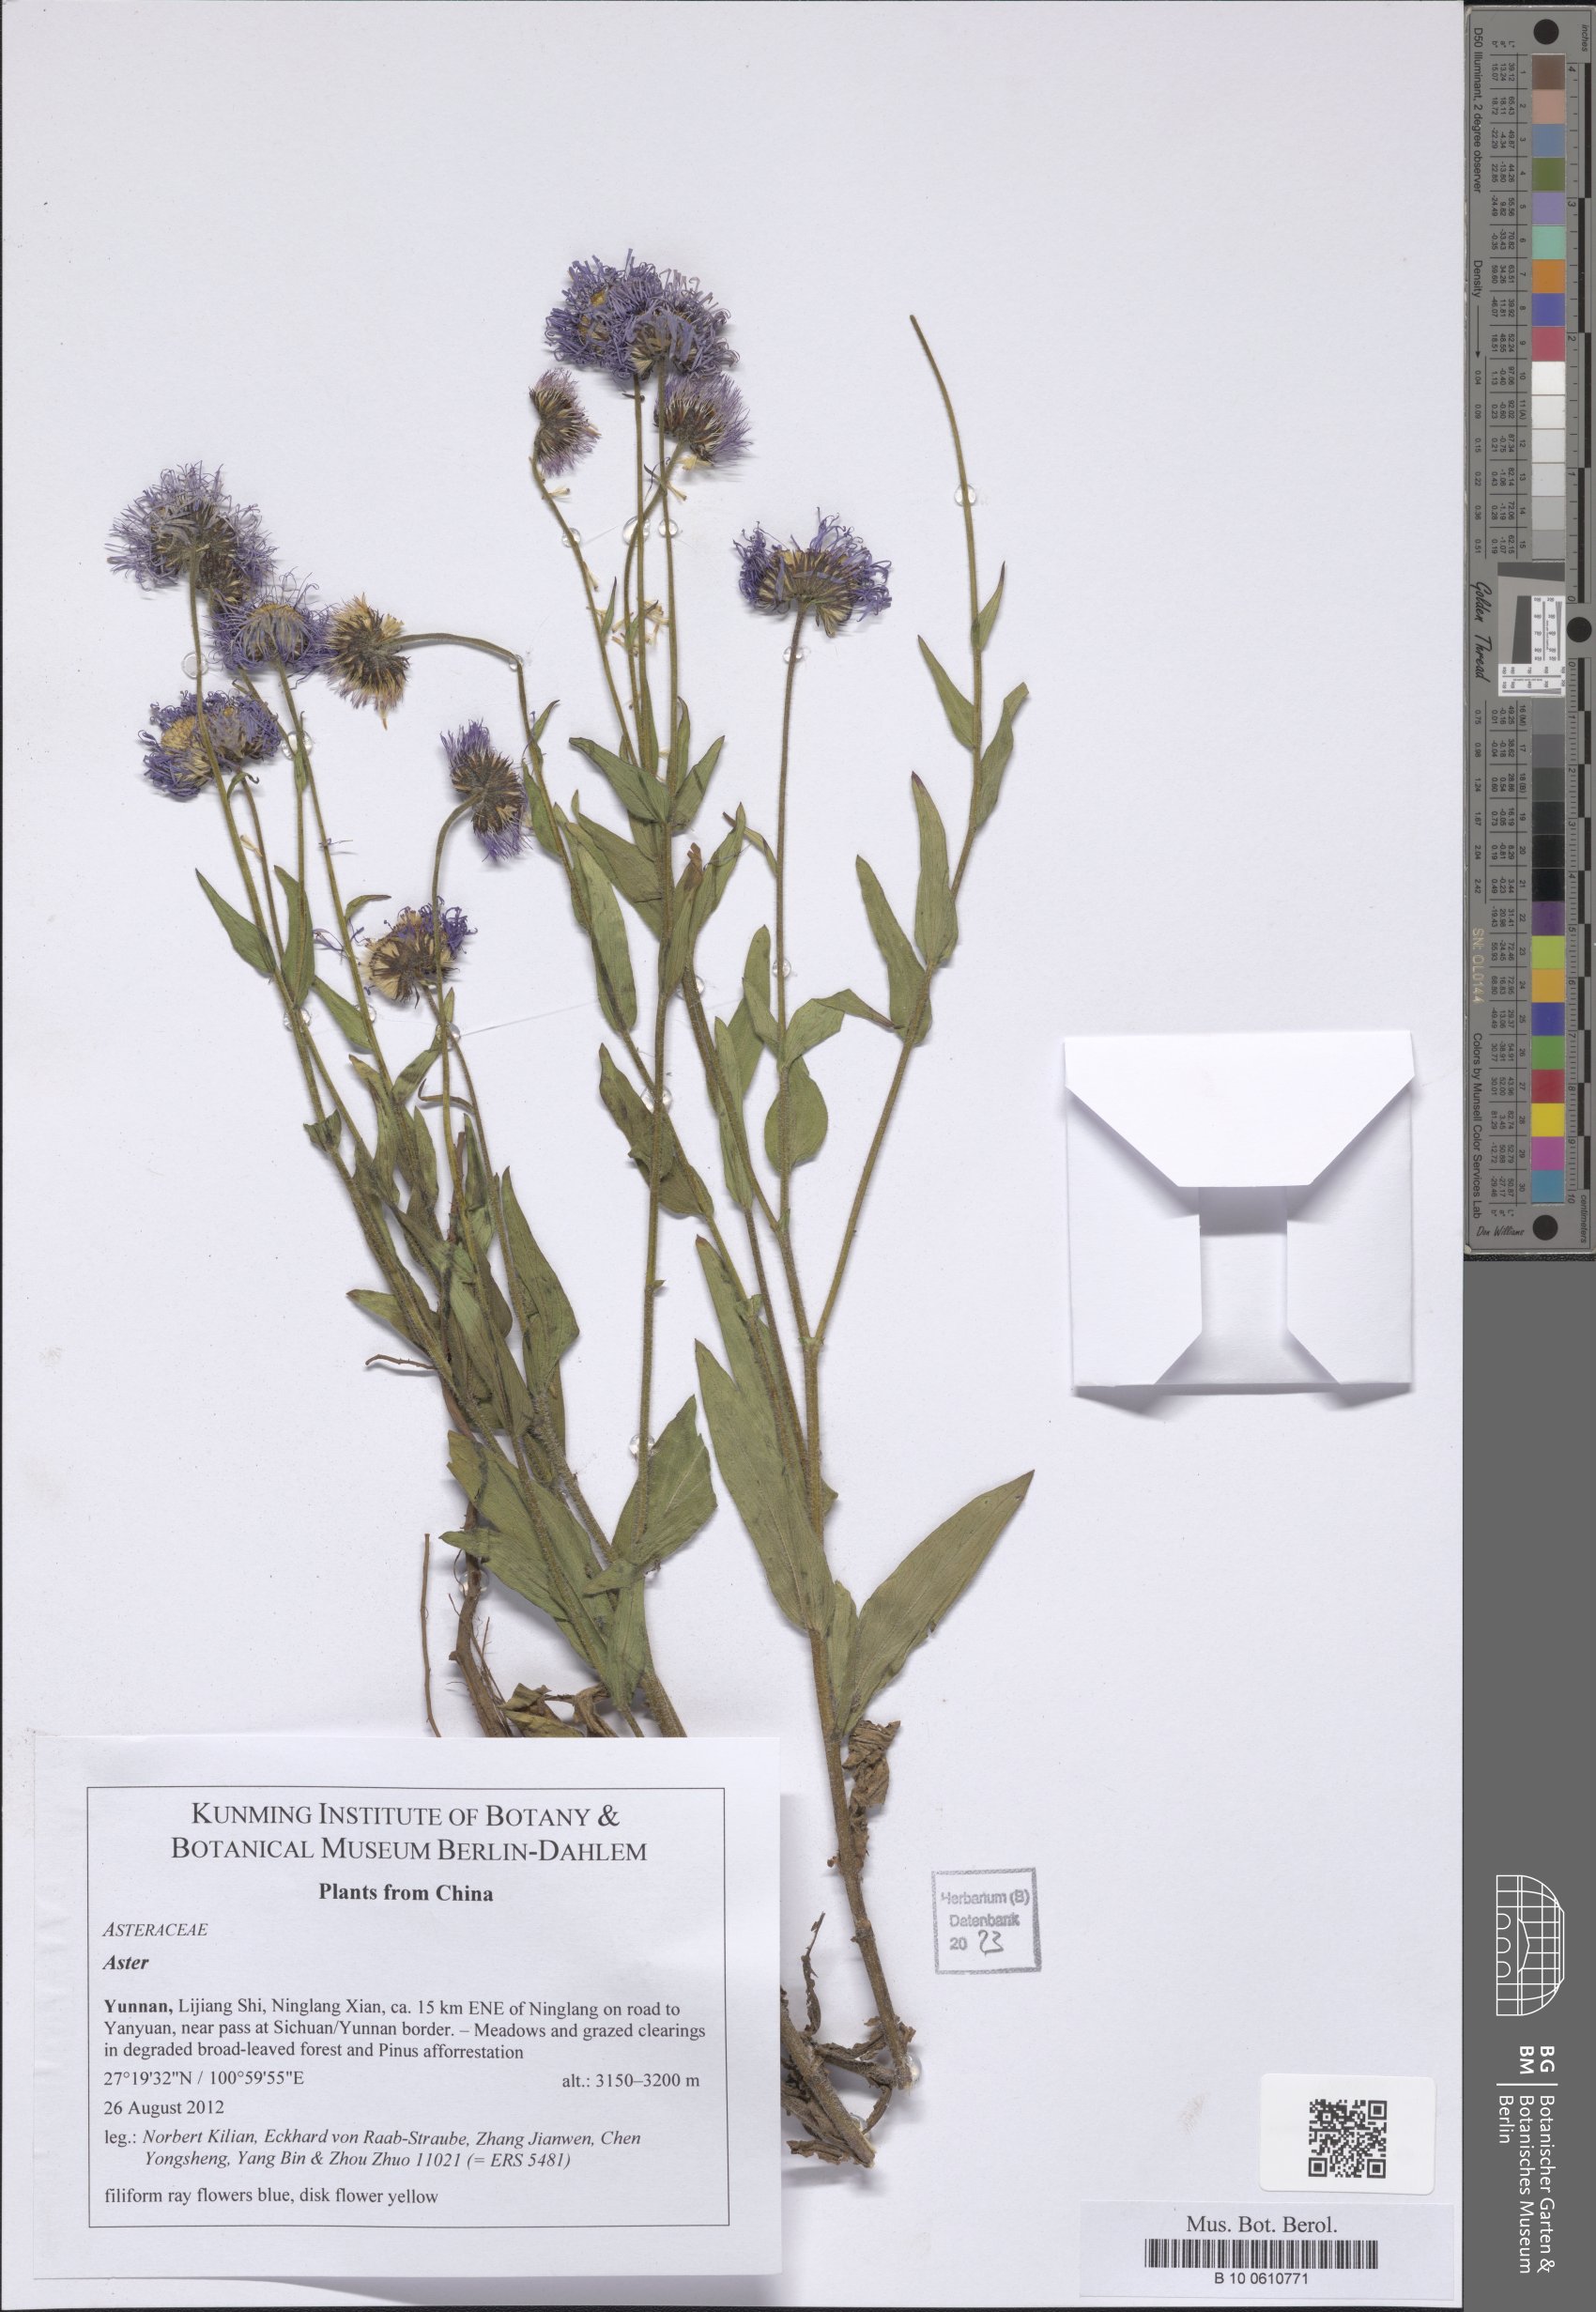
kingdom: Plantae
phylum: Tracheophyta
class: Magnoliopsida
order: Asterales
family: Asteraceae
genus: Aster
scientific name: Aster
